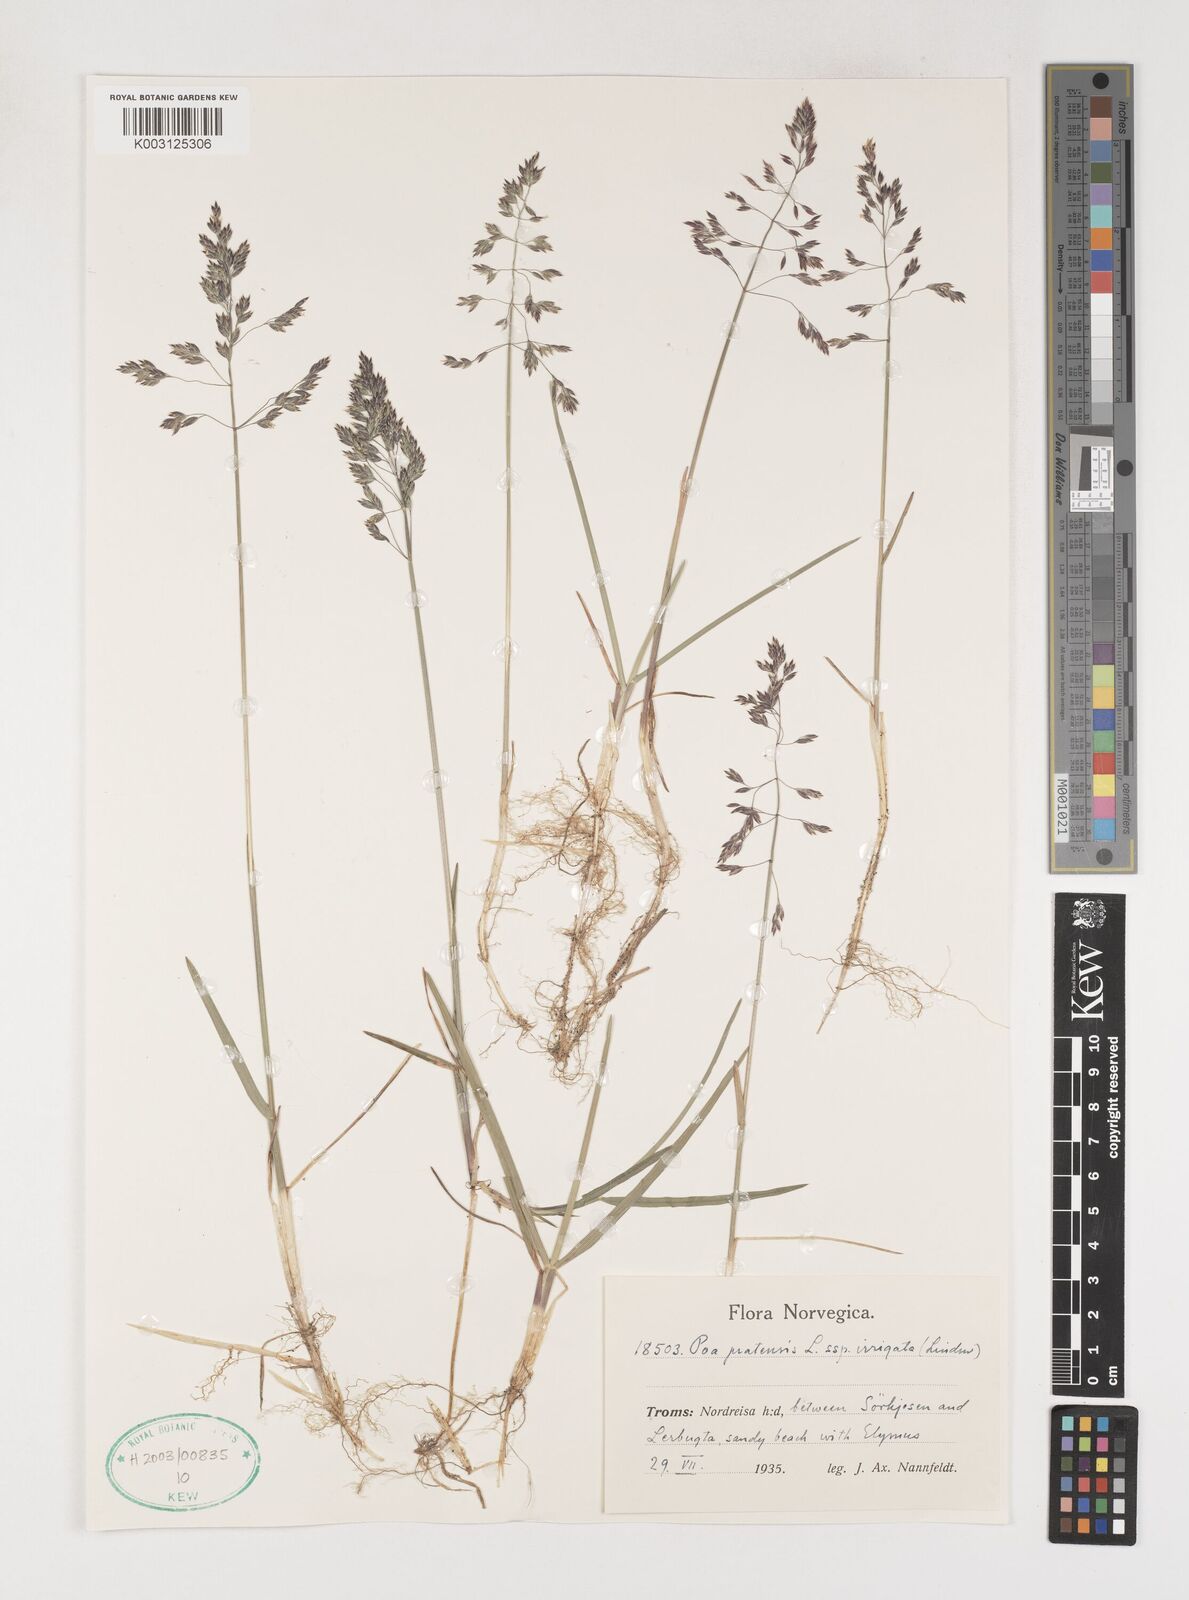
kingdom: Plantae
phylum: Tracheophyta
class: Liliopsida
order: Poales
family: Poaceae
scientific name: Poaceae
